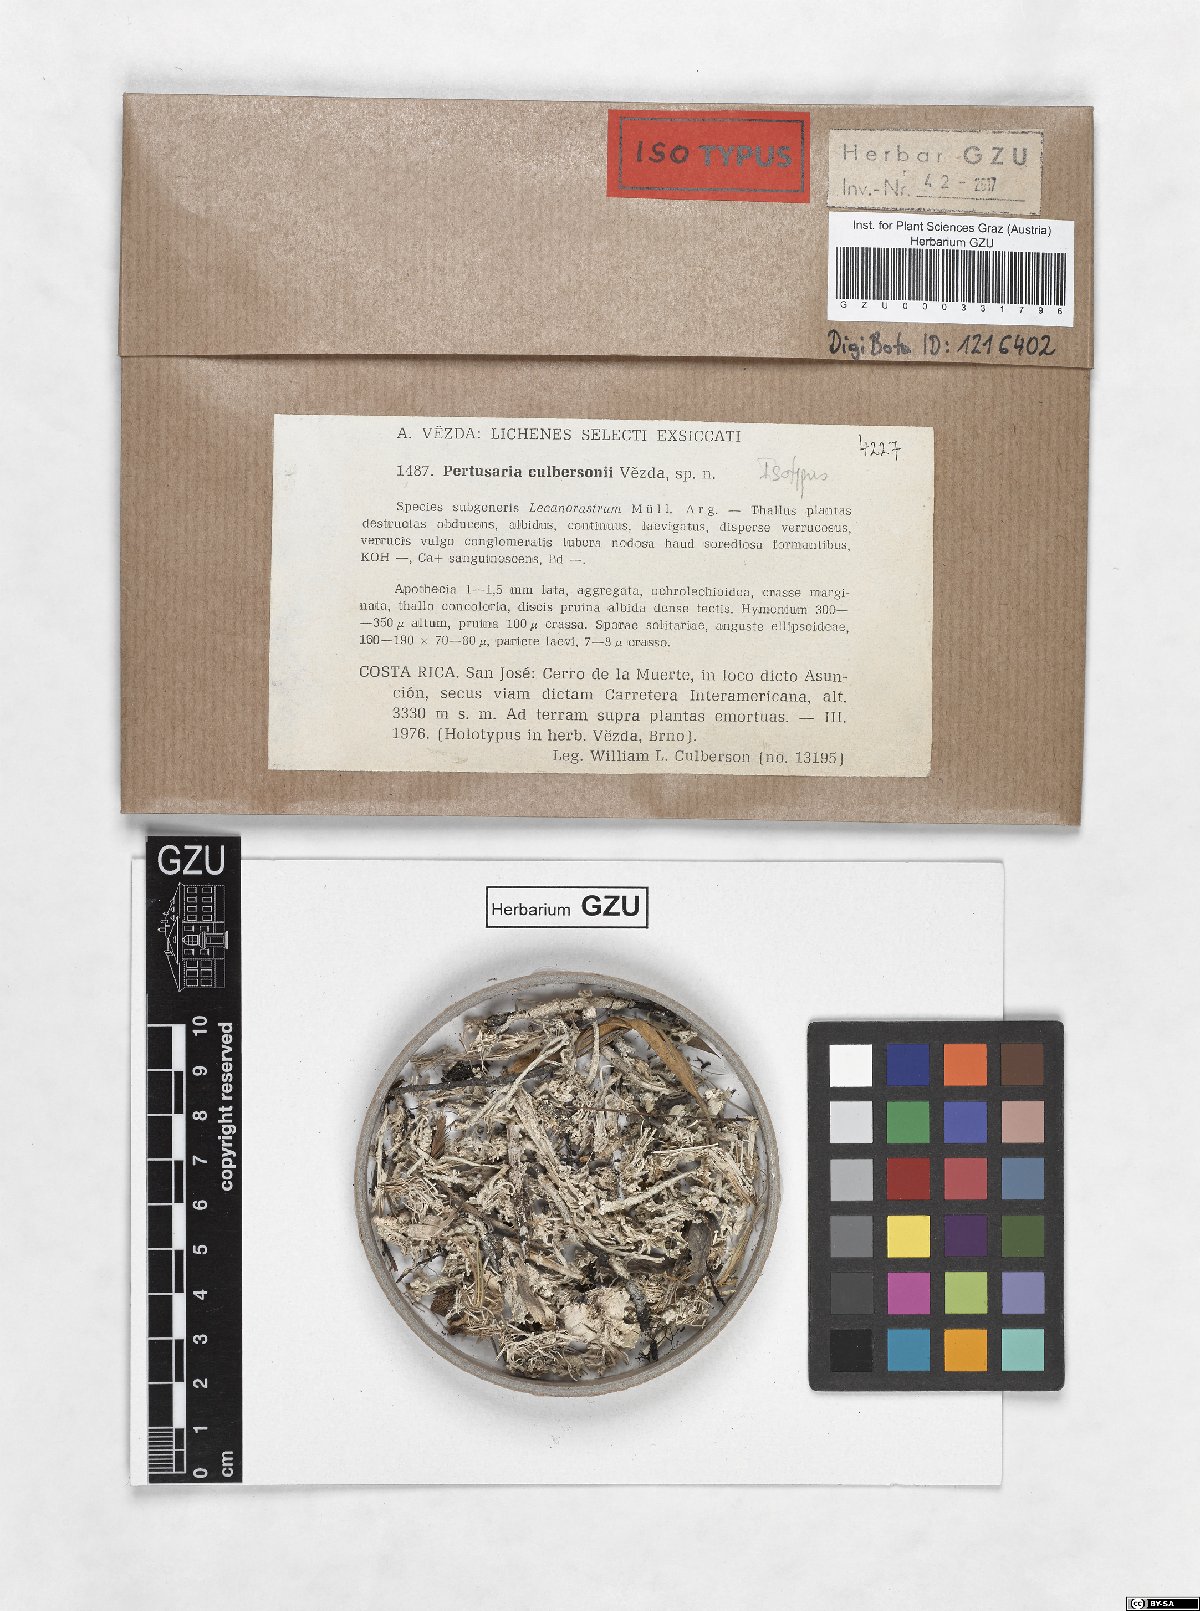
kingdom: Fungi
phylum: Ascomycota
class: Lecanoromycetes
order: Pertusariales
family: Varicellariaceae
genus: Varicellaria
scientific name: Varicellaria culbersonii
